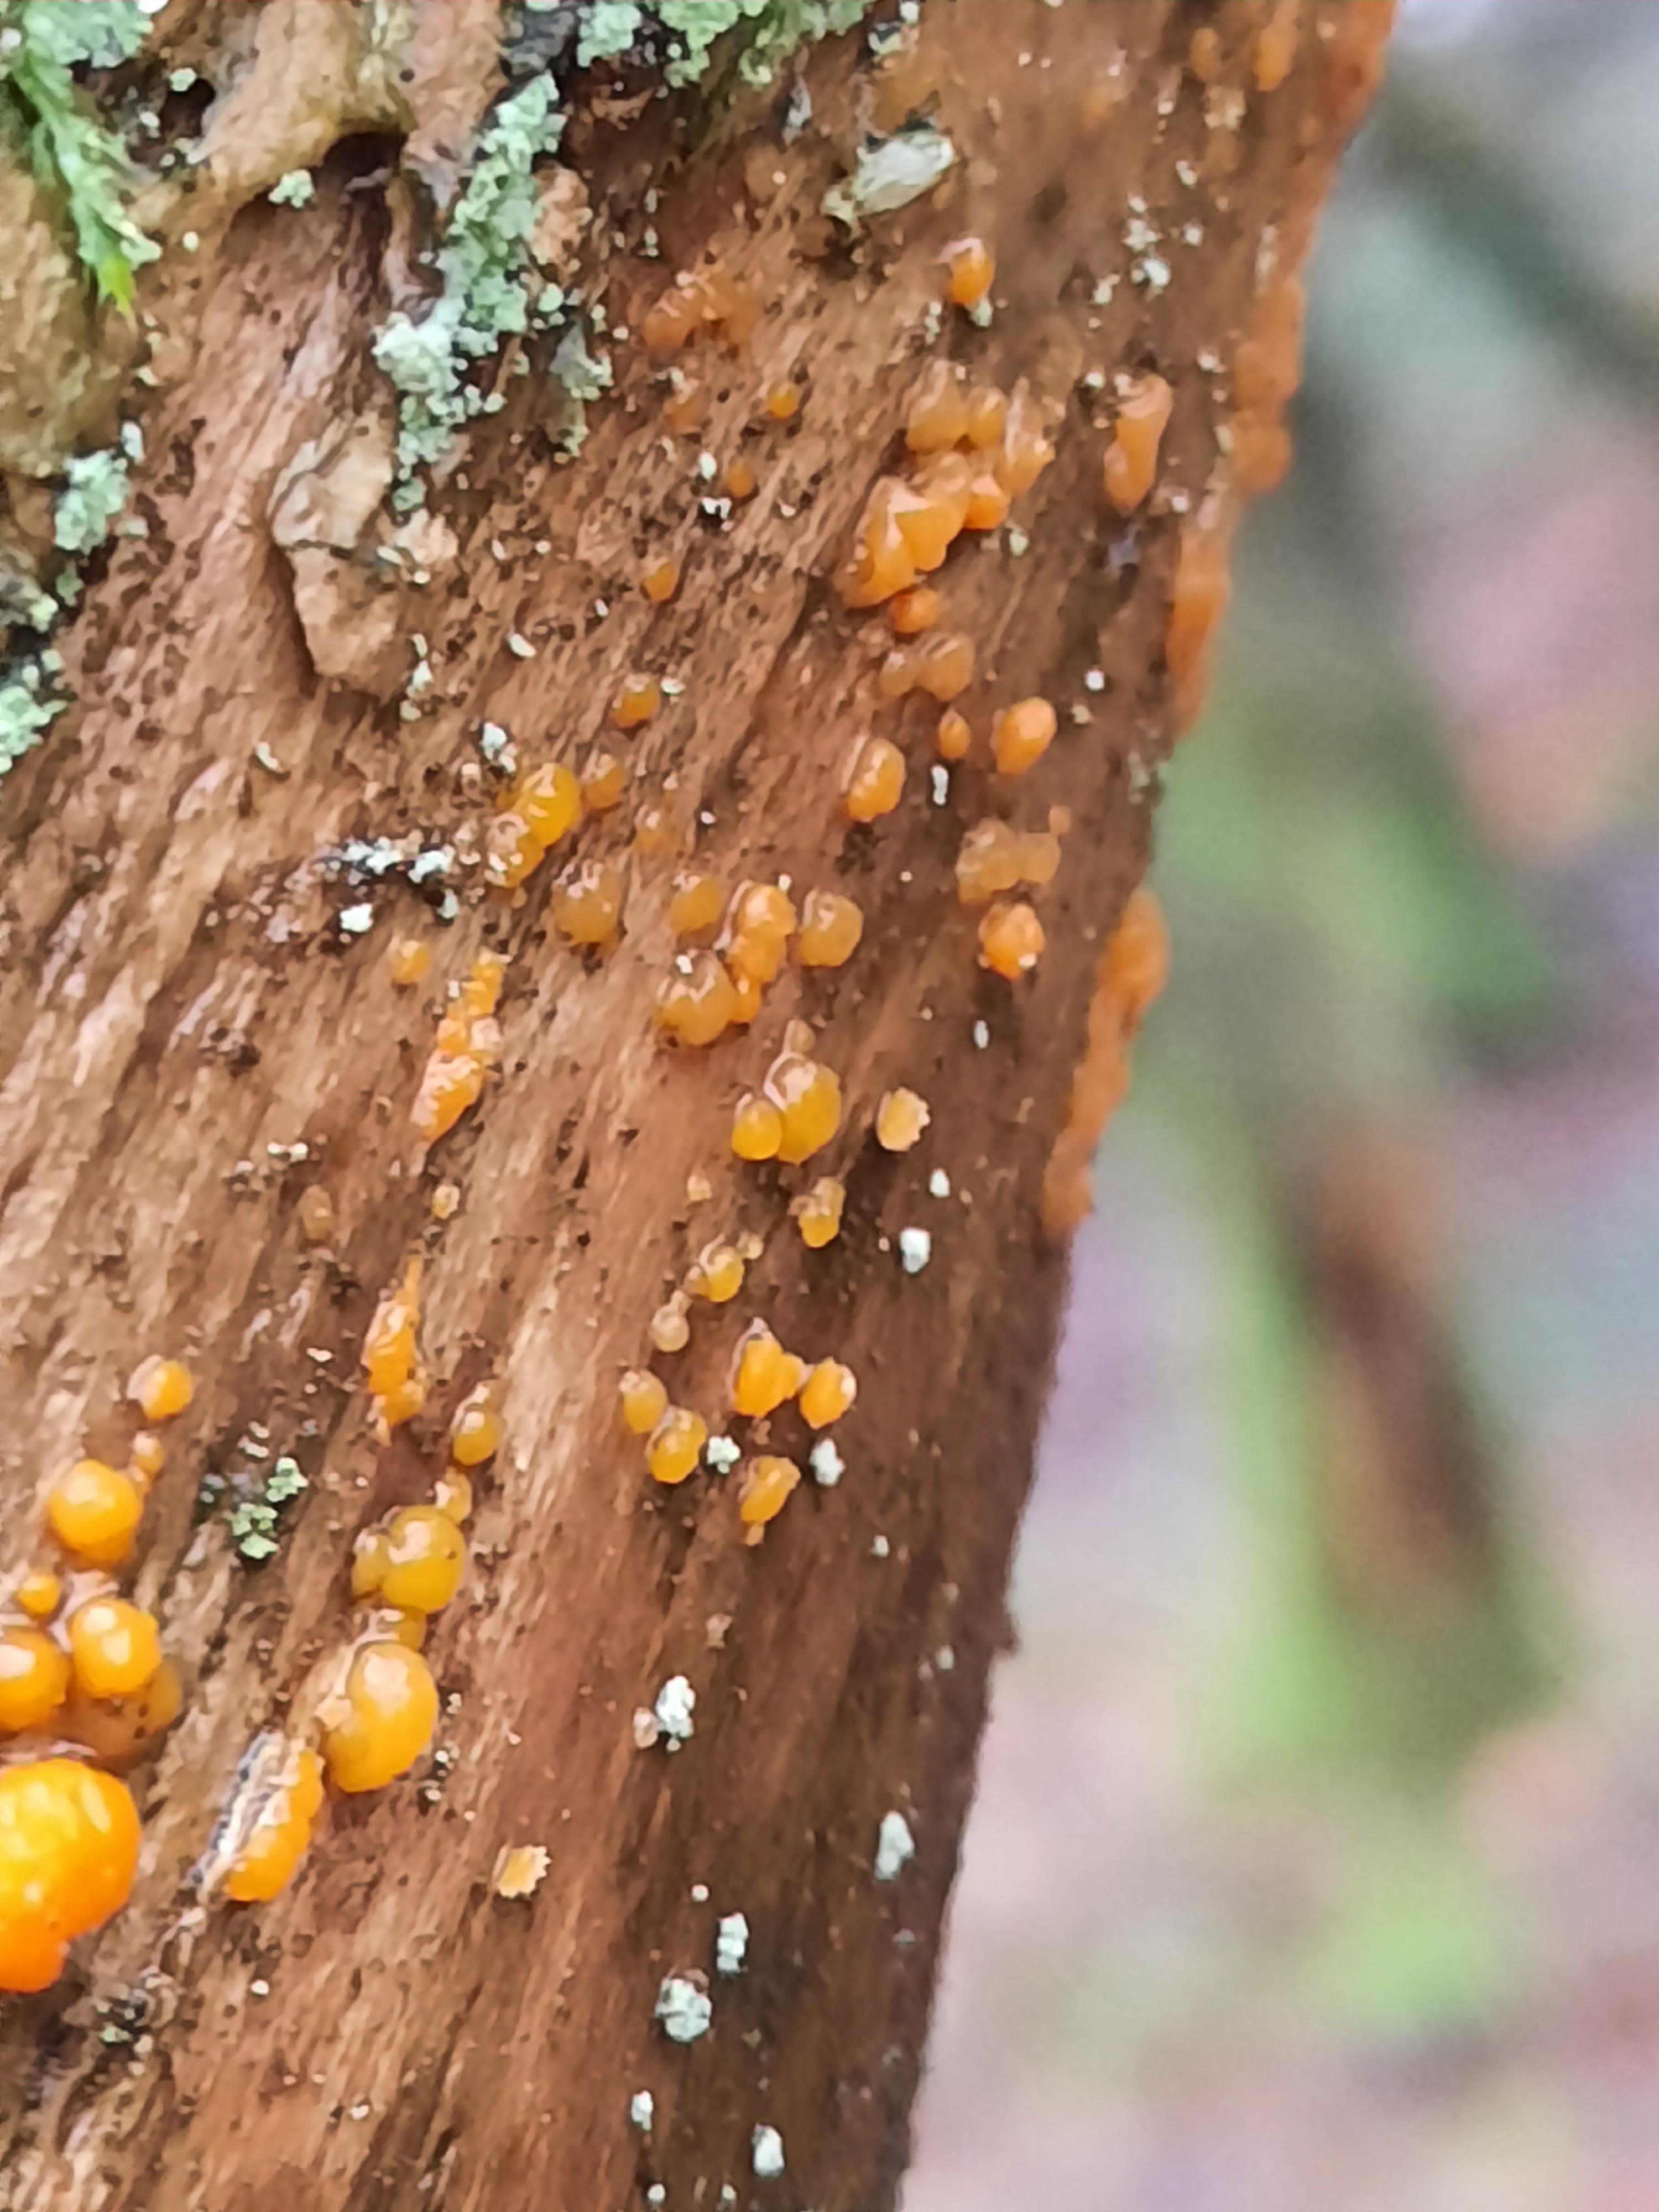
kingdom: Fungi
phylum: Basidiomycota
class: Dacrymycetes
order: Dacrymycetales
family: Dacrymycetaceae
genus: Dacrymyces
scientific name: Dacrymyces stillatus
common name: almindelig tåresvamp
